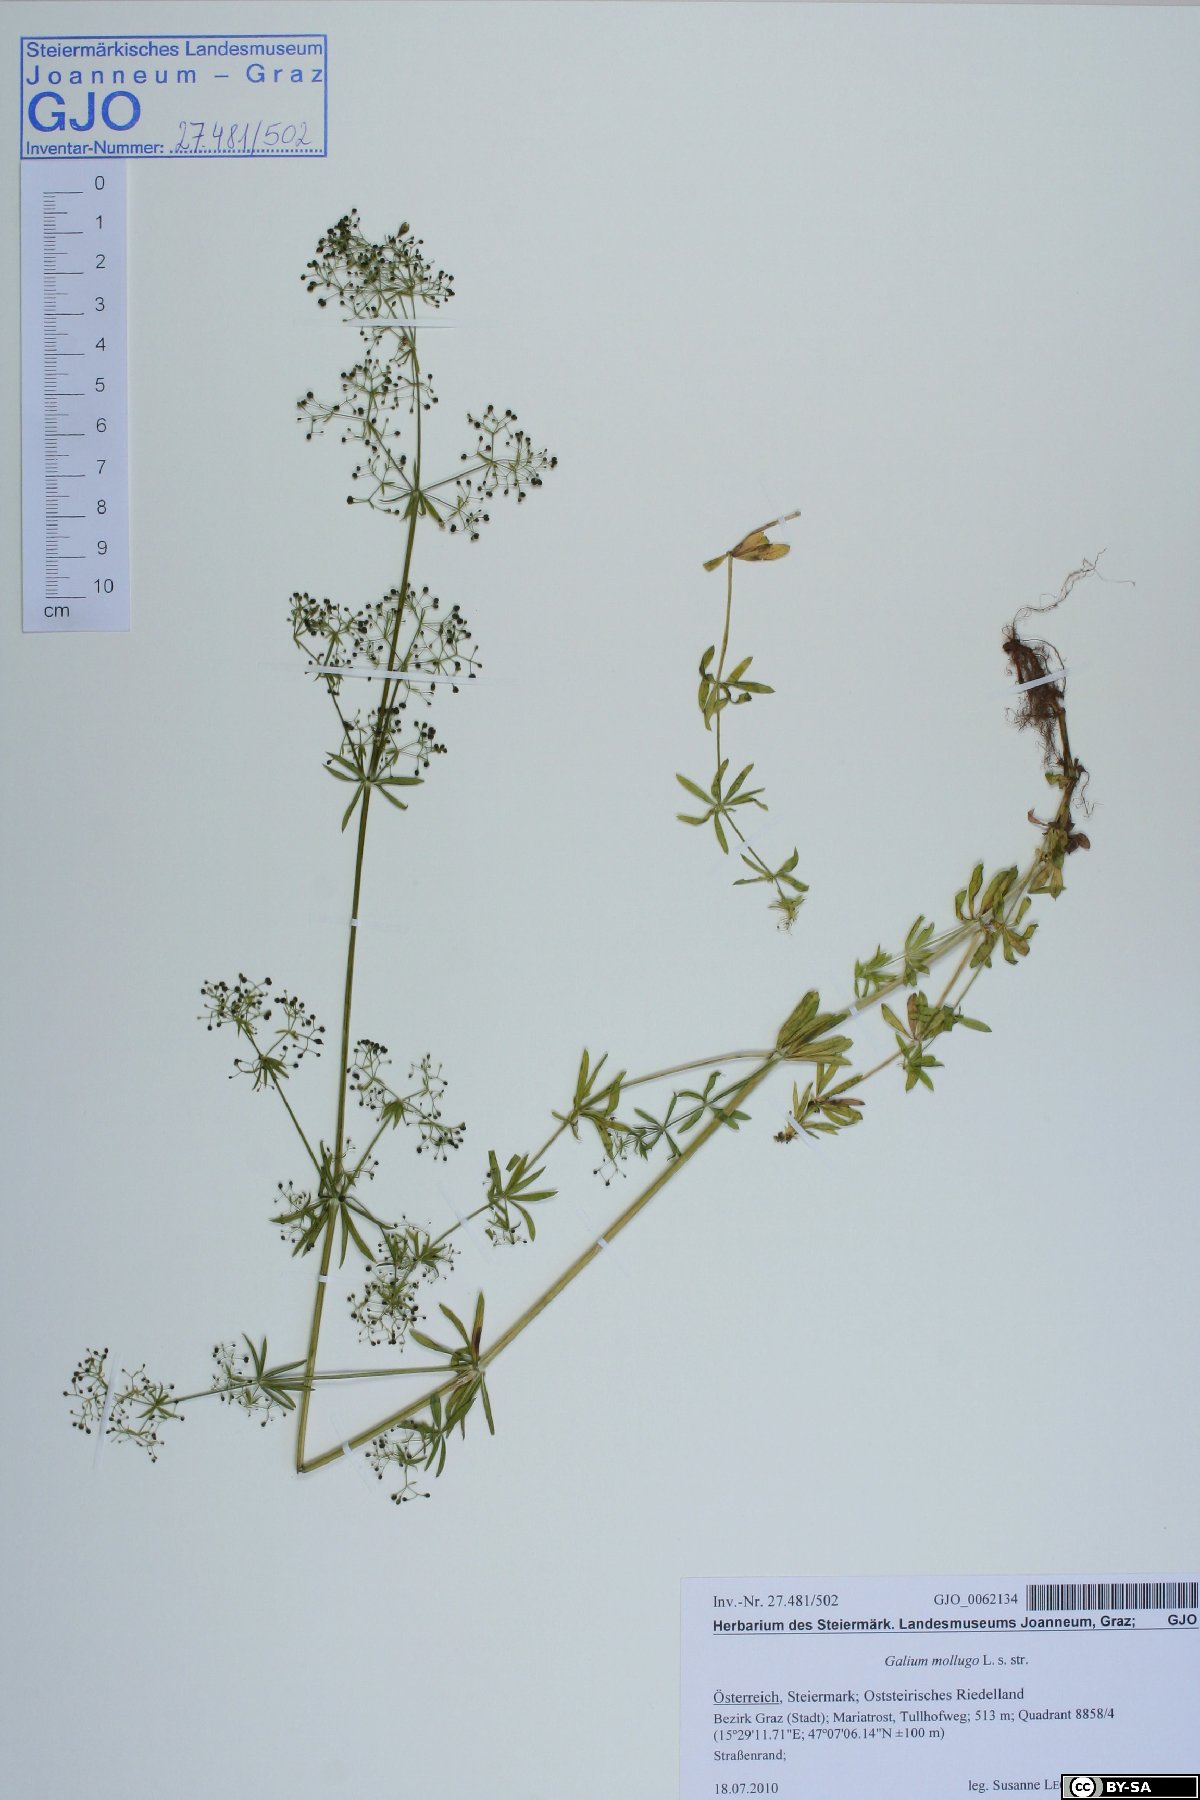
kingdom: Plantae
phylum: Tracheophyta
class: Magnoliopsida
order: Gentianales
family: Rubiaceae
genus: Galium
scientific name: Galium mollugo
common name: Hedge bedstraw
